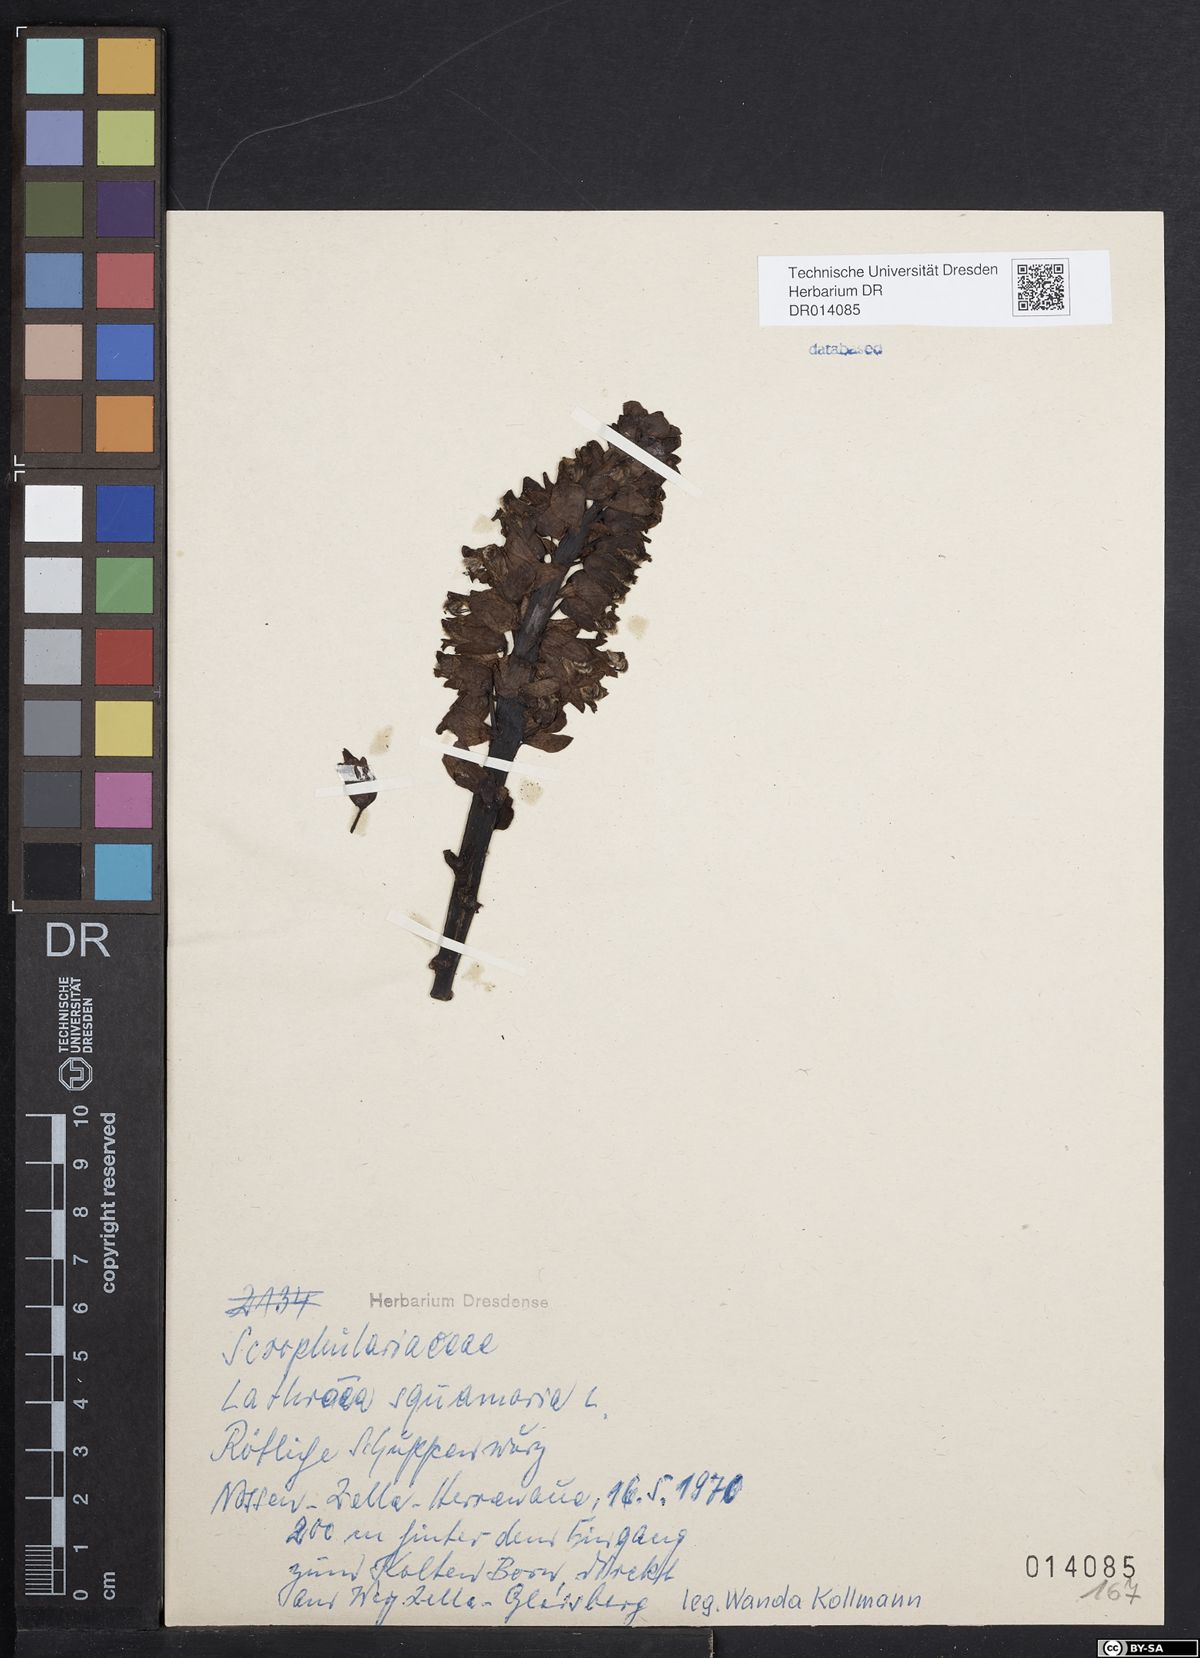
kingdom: Plantae
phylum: Tracheophyta
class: Magnoliopsida
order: Lamiales
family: Orobanchaceae
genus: Lathraea
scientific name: Lathraea squamaria
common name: Toothwort
